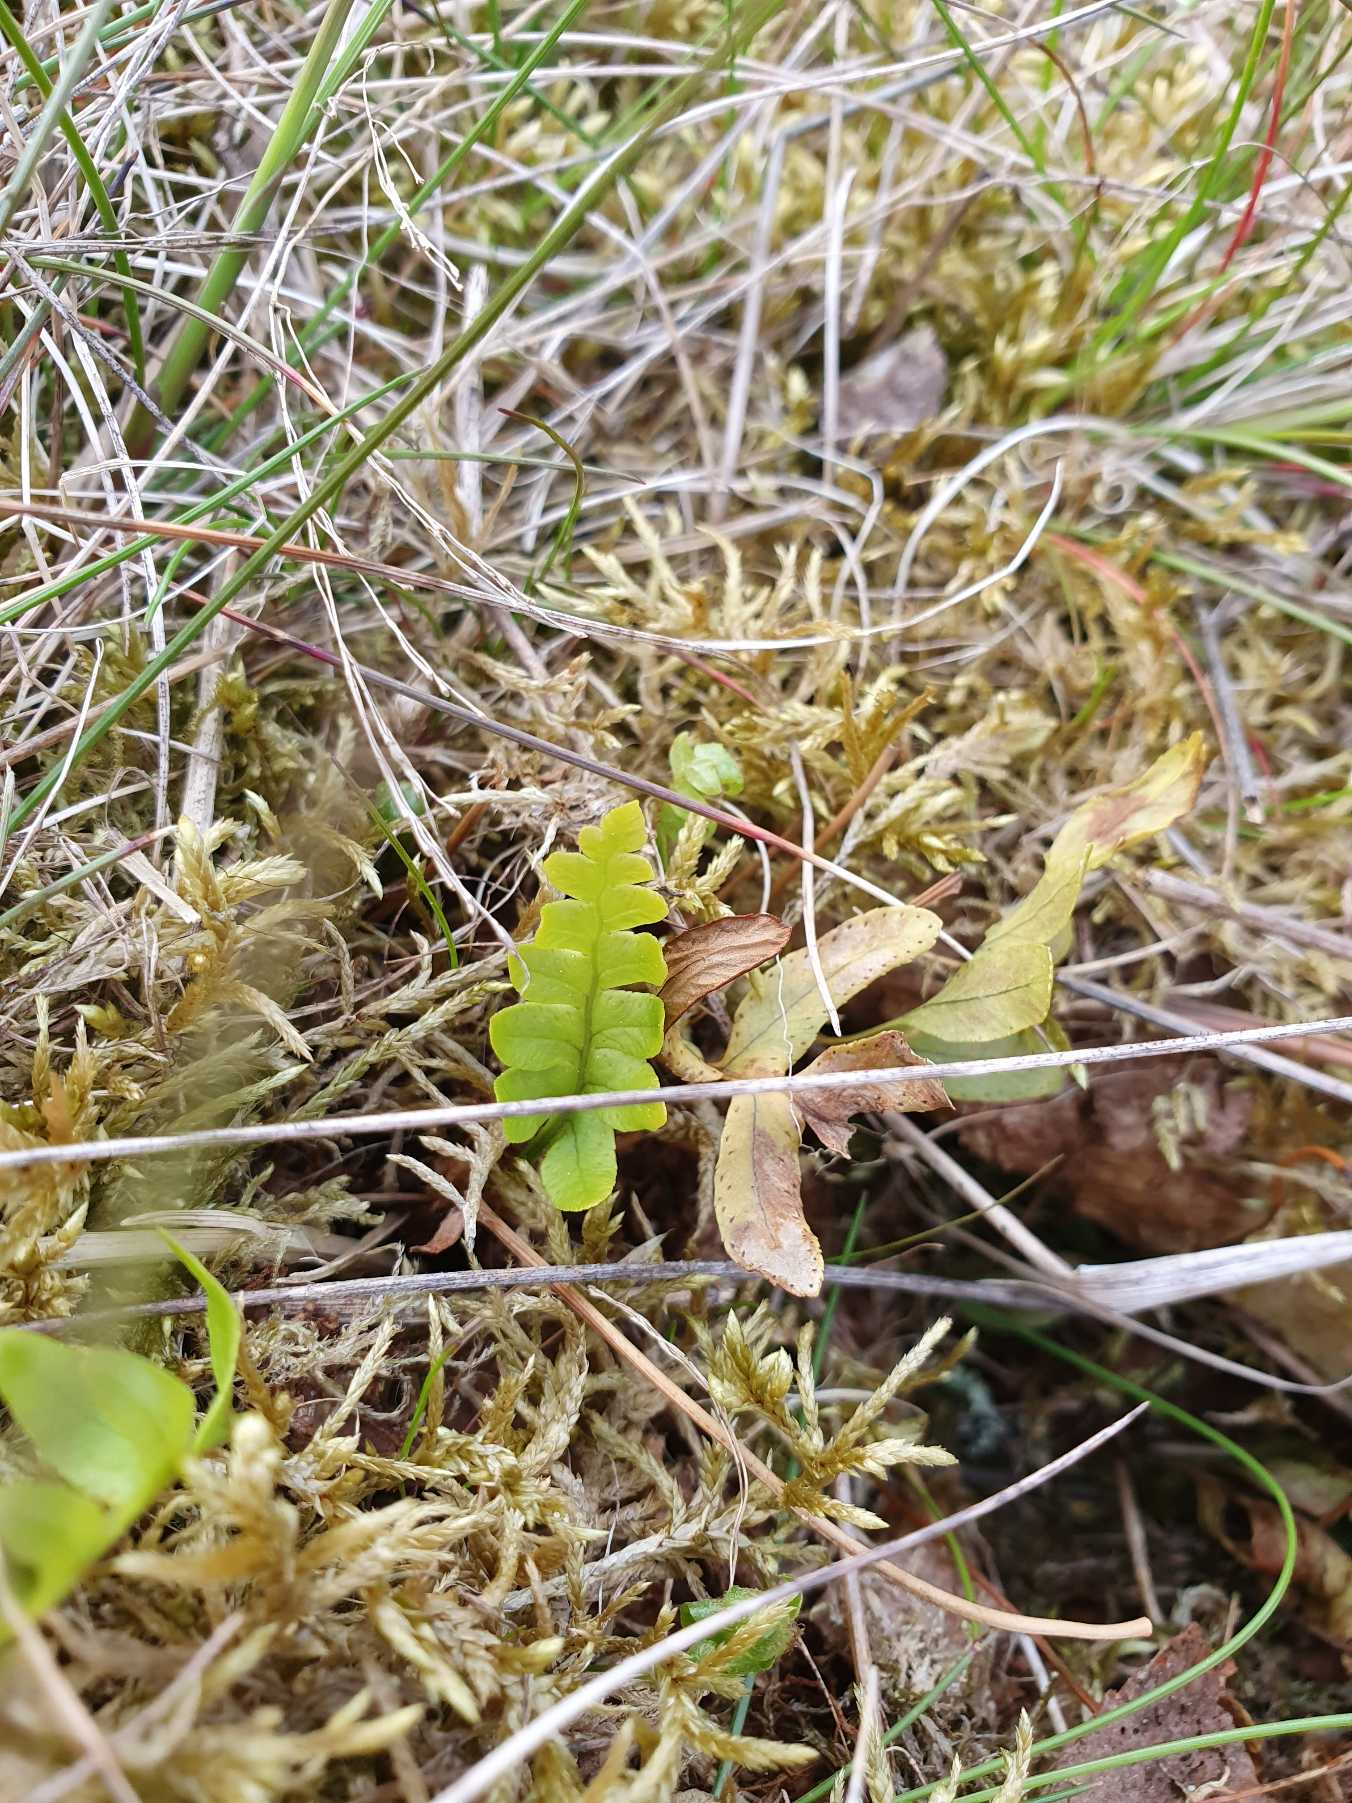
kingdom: Plantae
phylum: Tracheophyta
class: Polypodiopsida
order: Polypodiales
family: Polypodiaceae
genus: Polypodium
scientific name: Polypodium vulgare
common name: Almindelig engelsød
